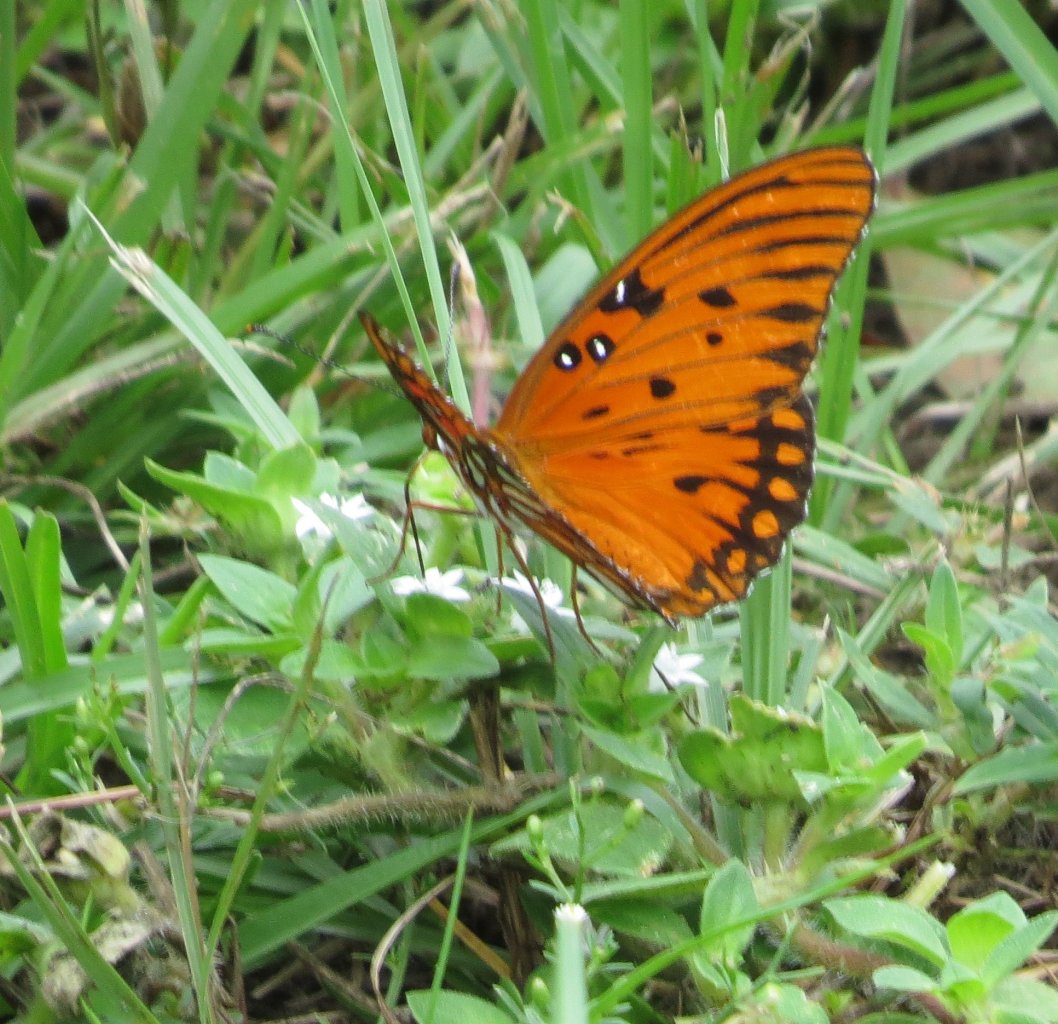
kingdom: Animalia
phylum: Arthropoda
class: Insecta
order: Lepidoptera
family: Nymphalidae
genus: Dione
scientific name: Dione vanillae
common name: Gulf Fritillary
